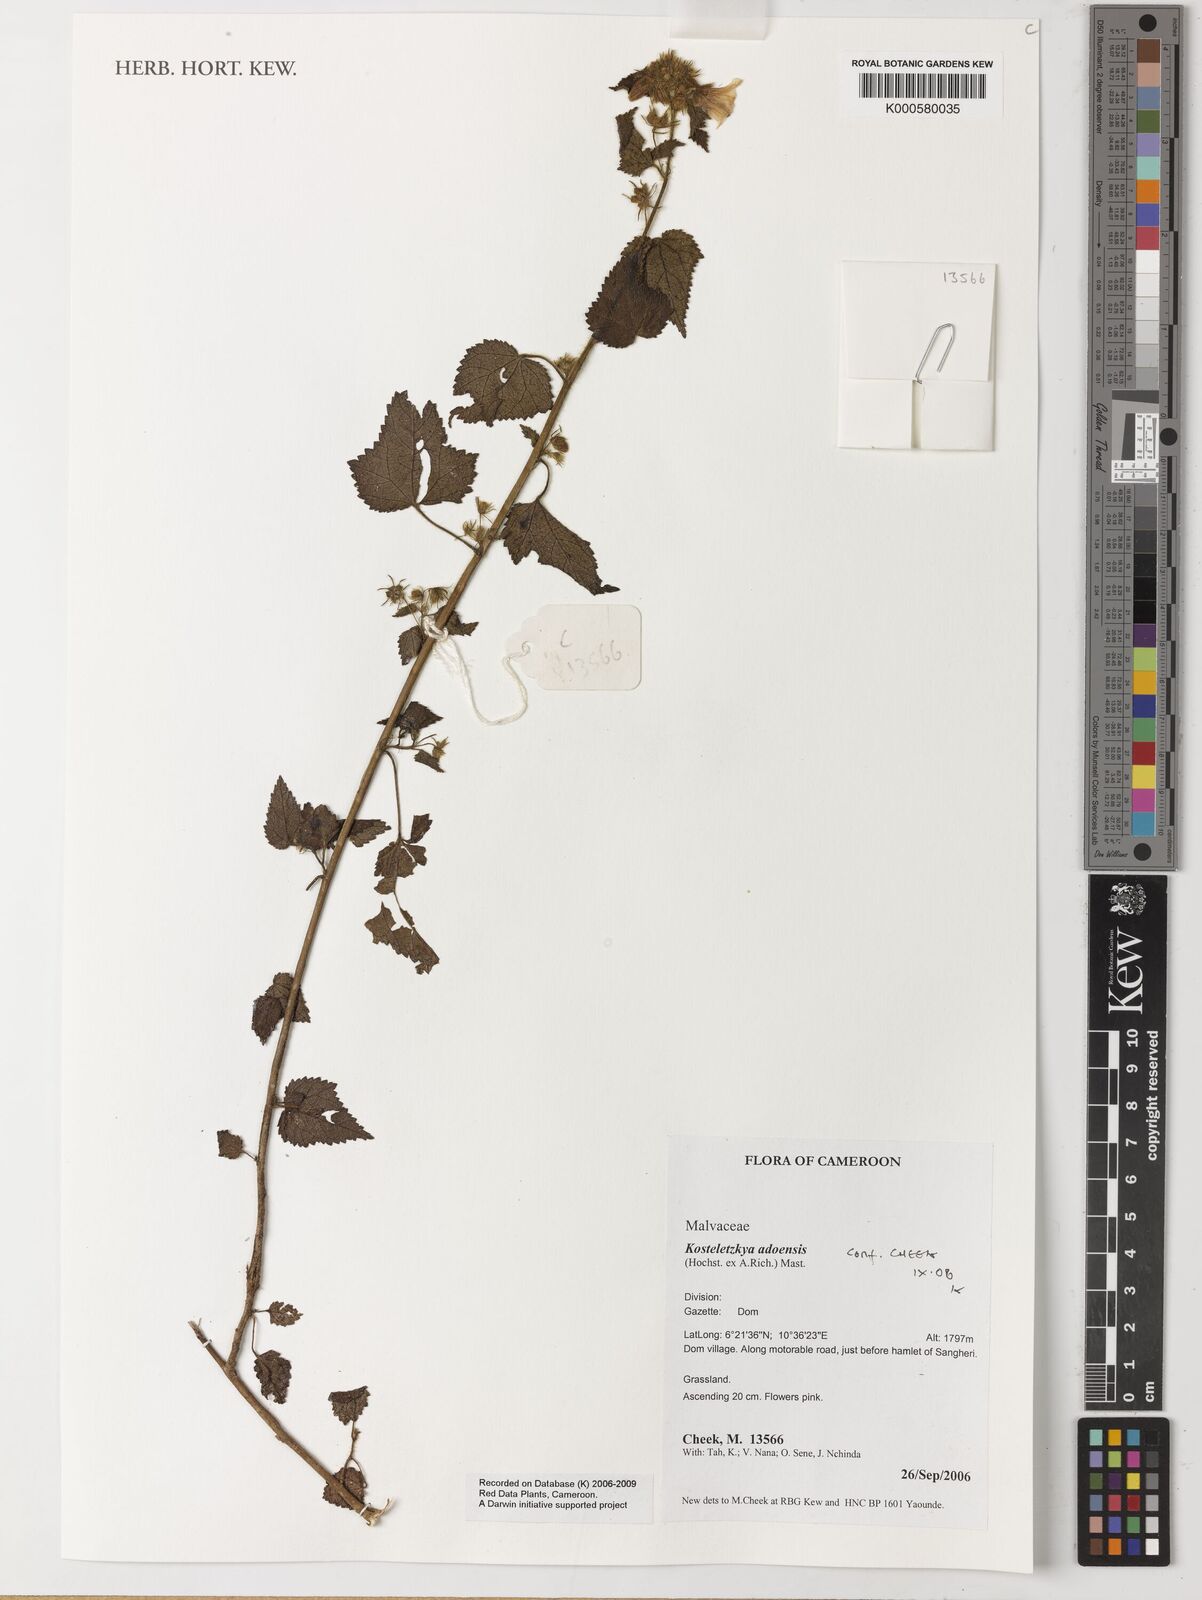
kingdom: Plantae
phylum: Tracheophyta
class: Magnoliopsida
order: Malvales
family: Malvaceae
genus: Kosteletzkya
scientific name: Kosteletzkya adoensis
